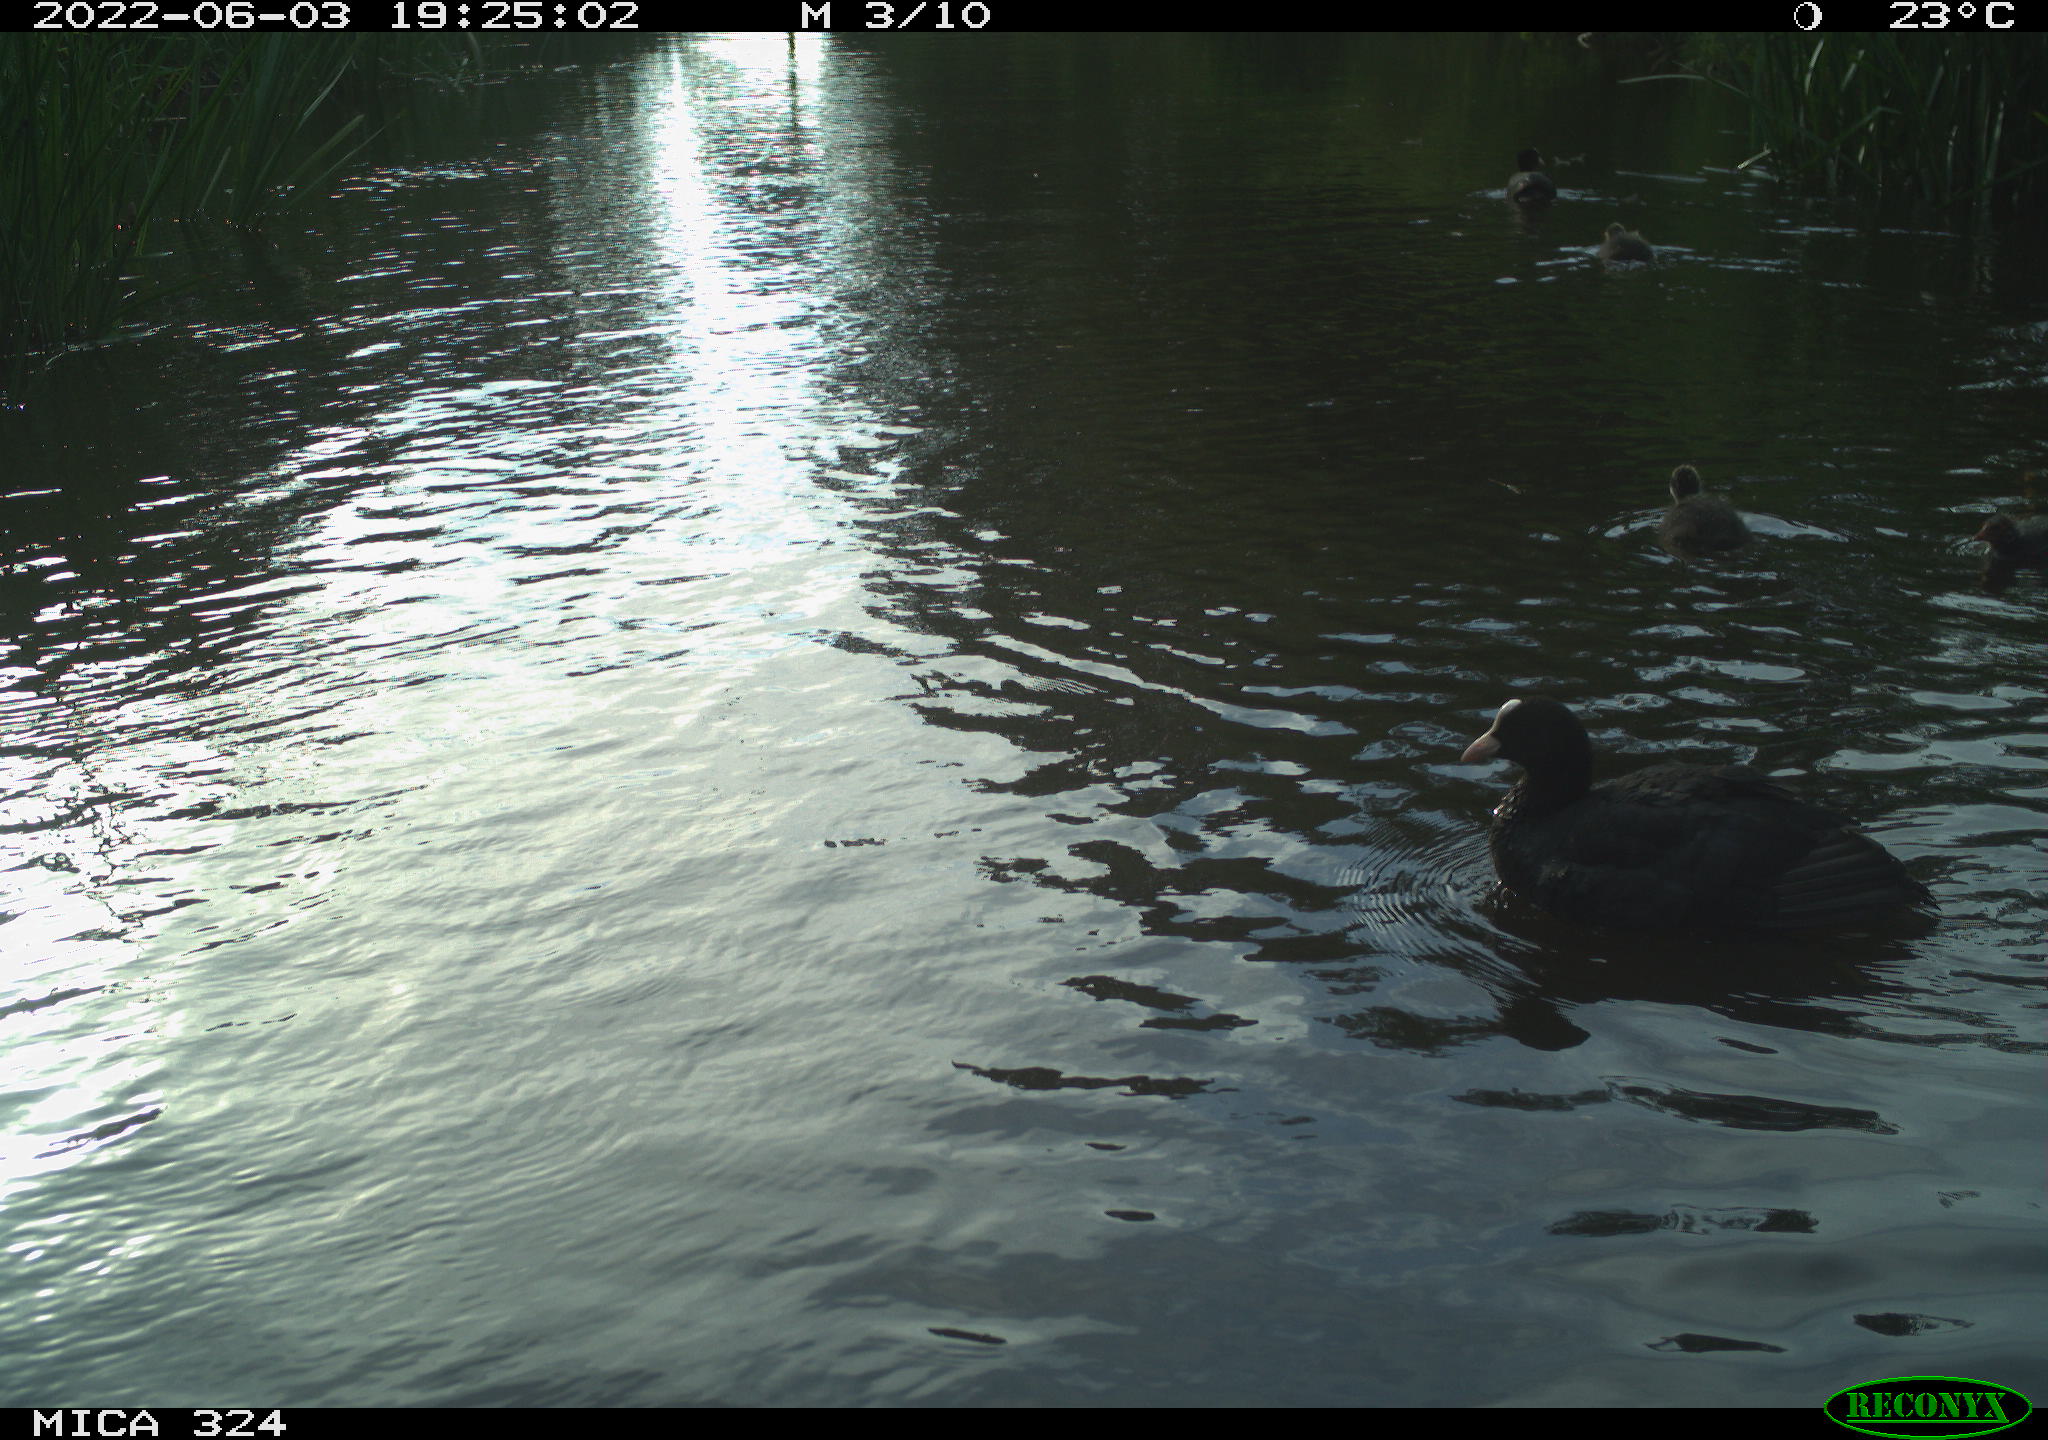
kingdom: Animalia
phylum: Chordata
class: Aves
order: Gruiformes
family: Rallidae
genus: Fulica
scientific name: Fulica atra
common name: Eurasian coot
